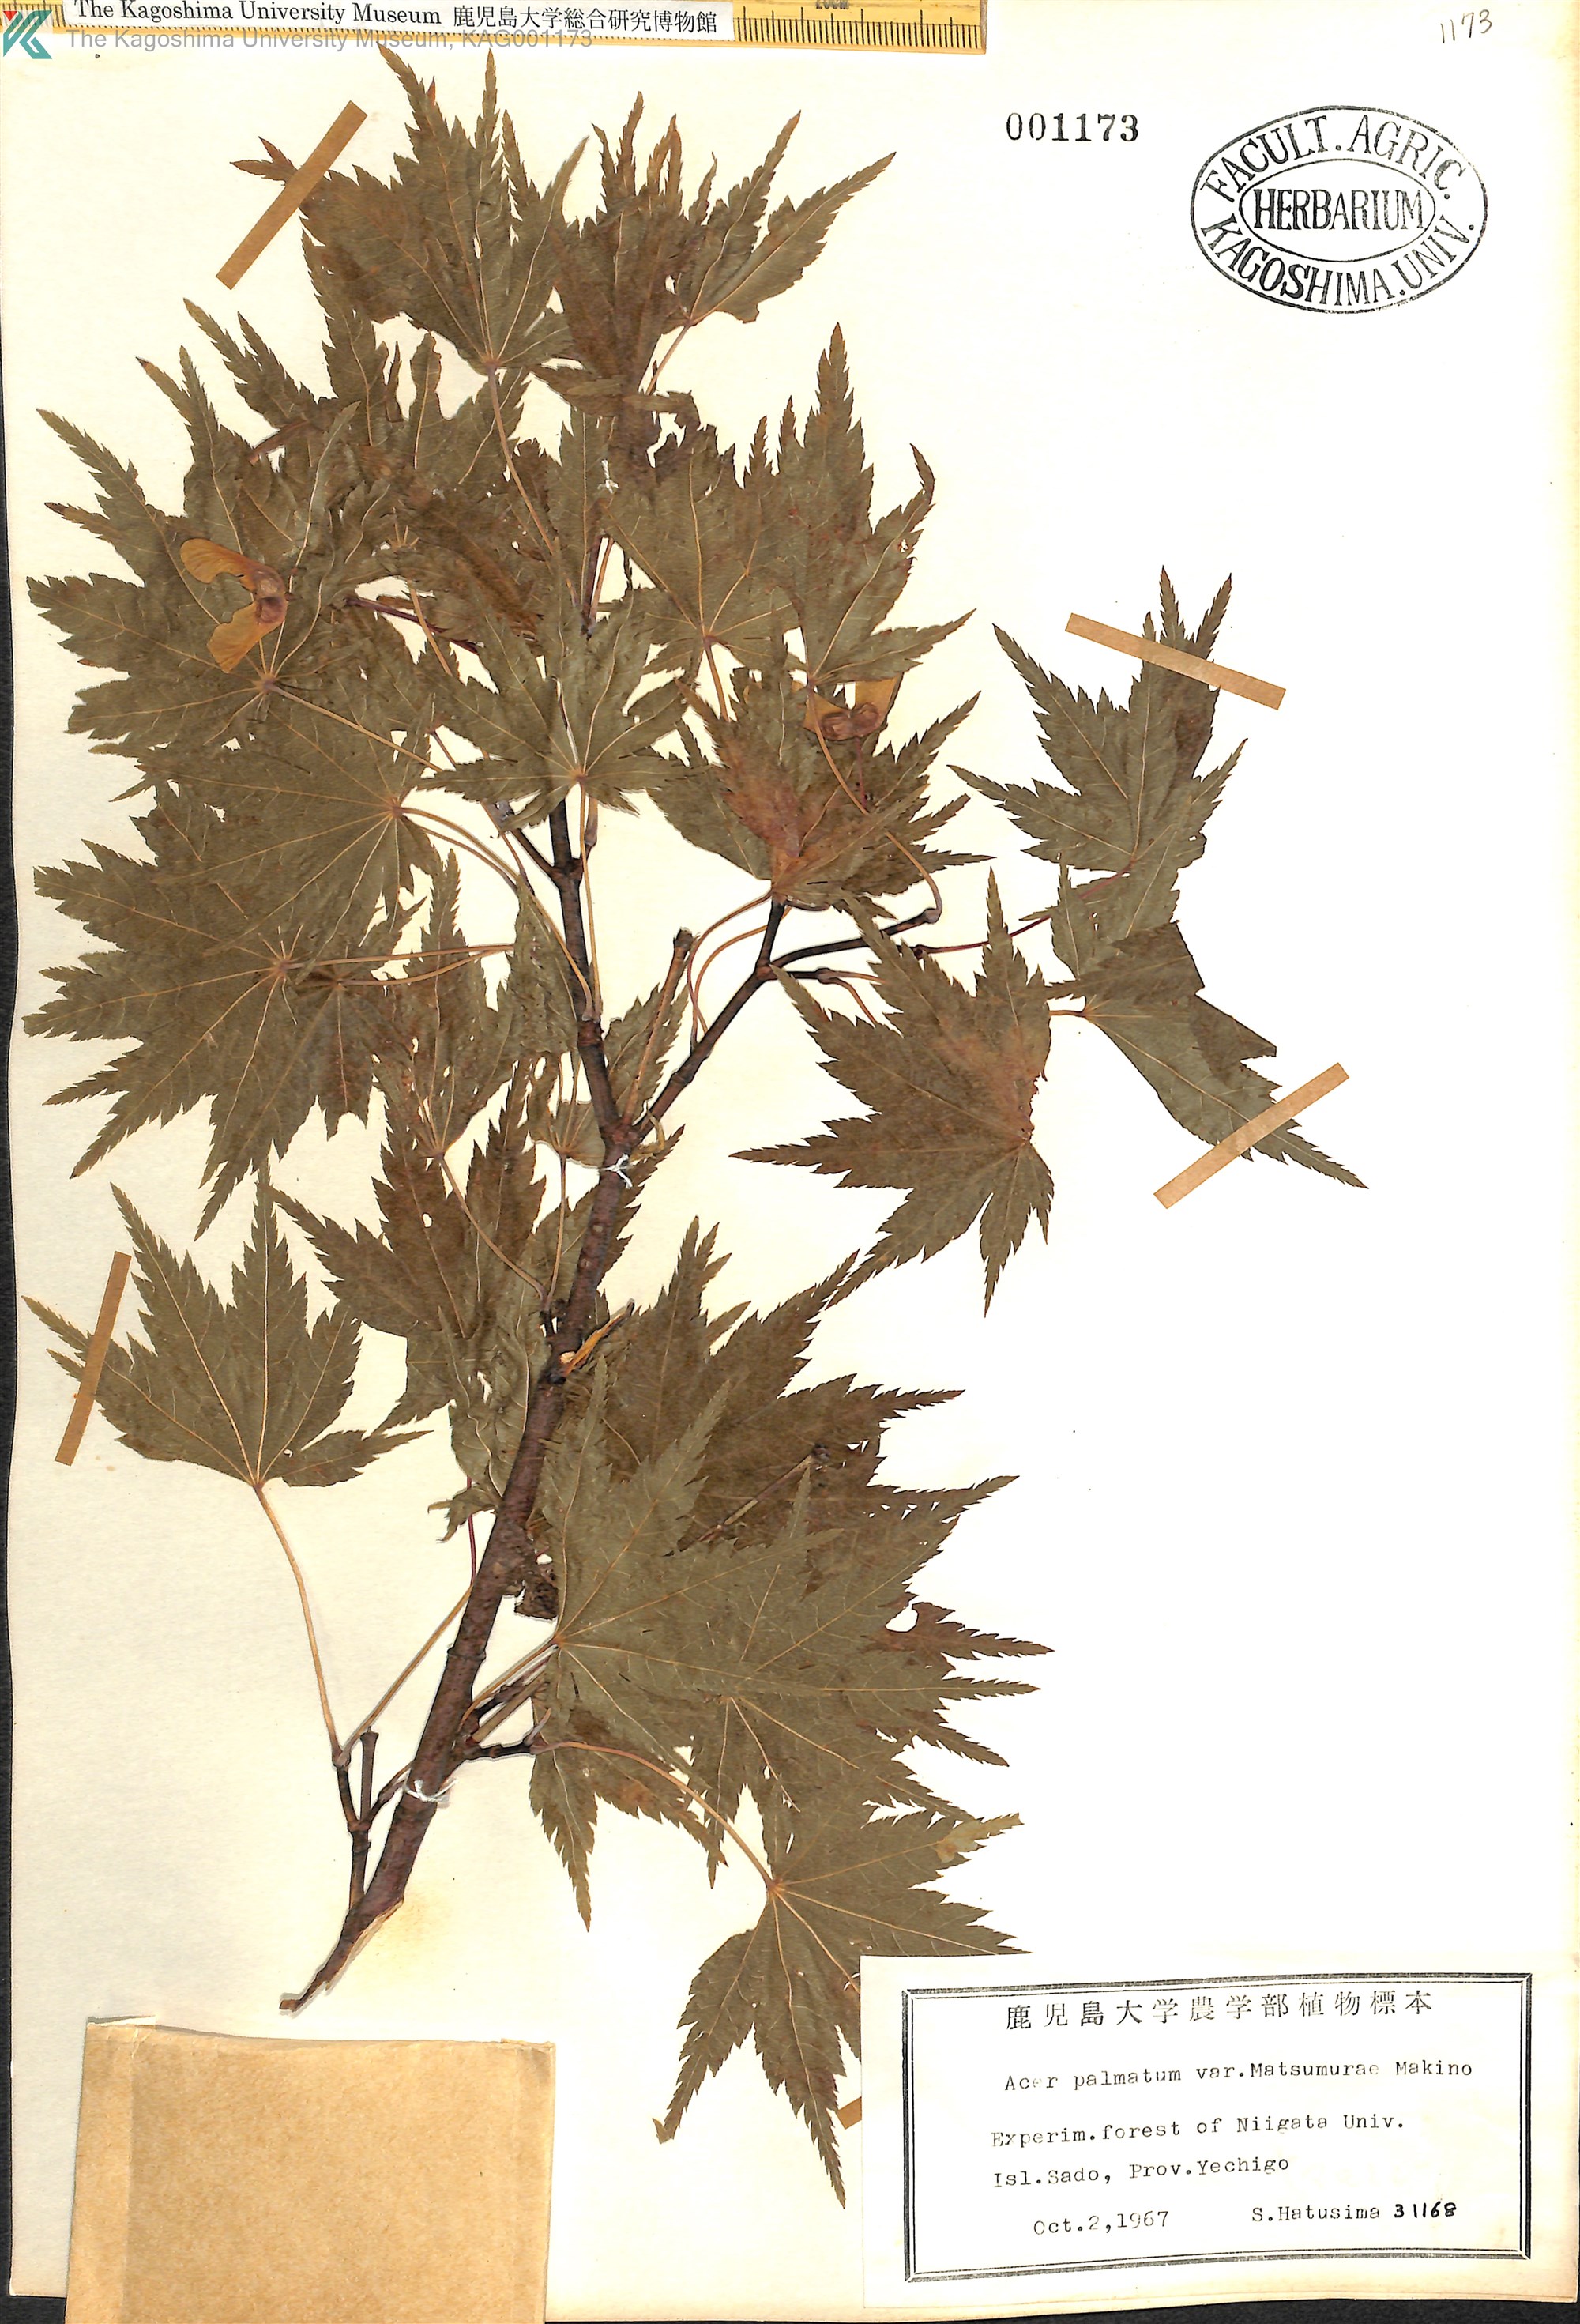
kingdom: Plantae
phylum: Tracheophyta
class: Magnoliopsida
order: Sapindales
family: Sapindaceae
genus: Acer
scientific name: Acer palmatum
